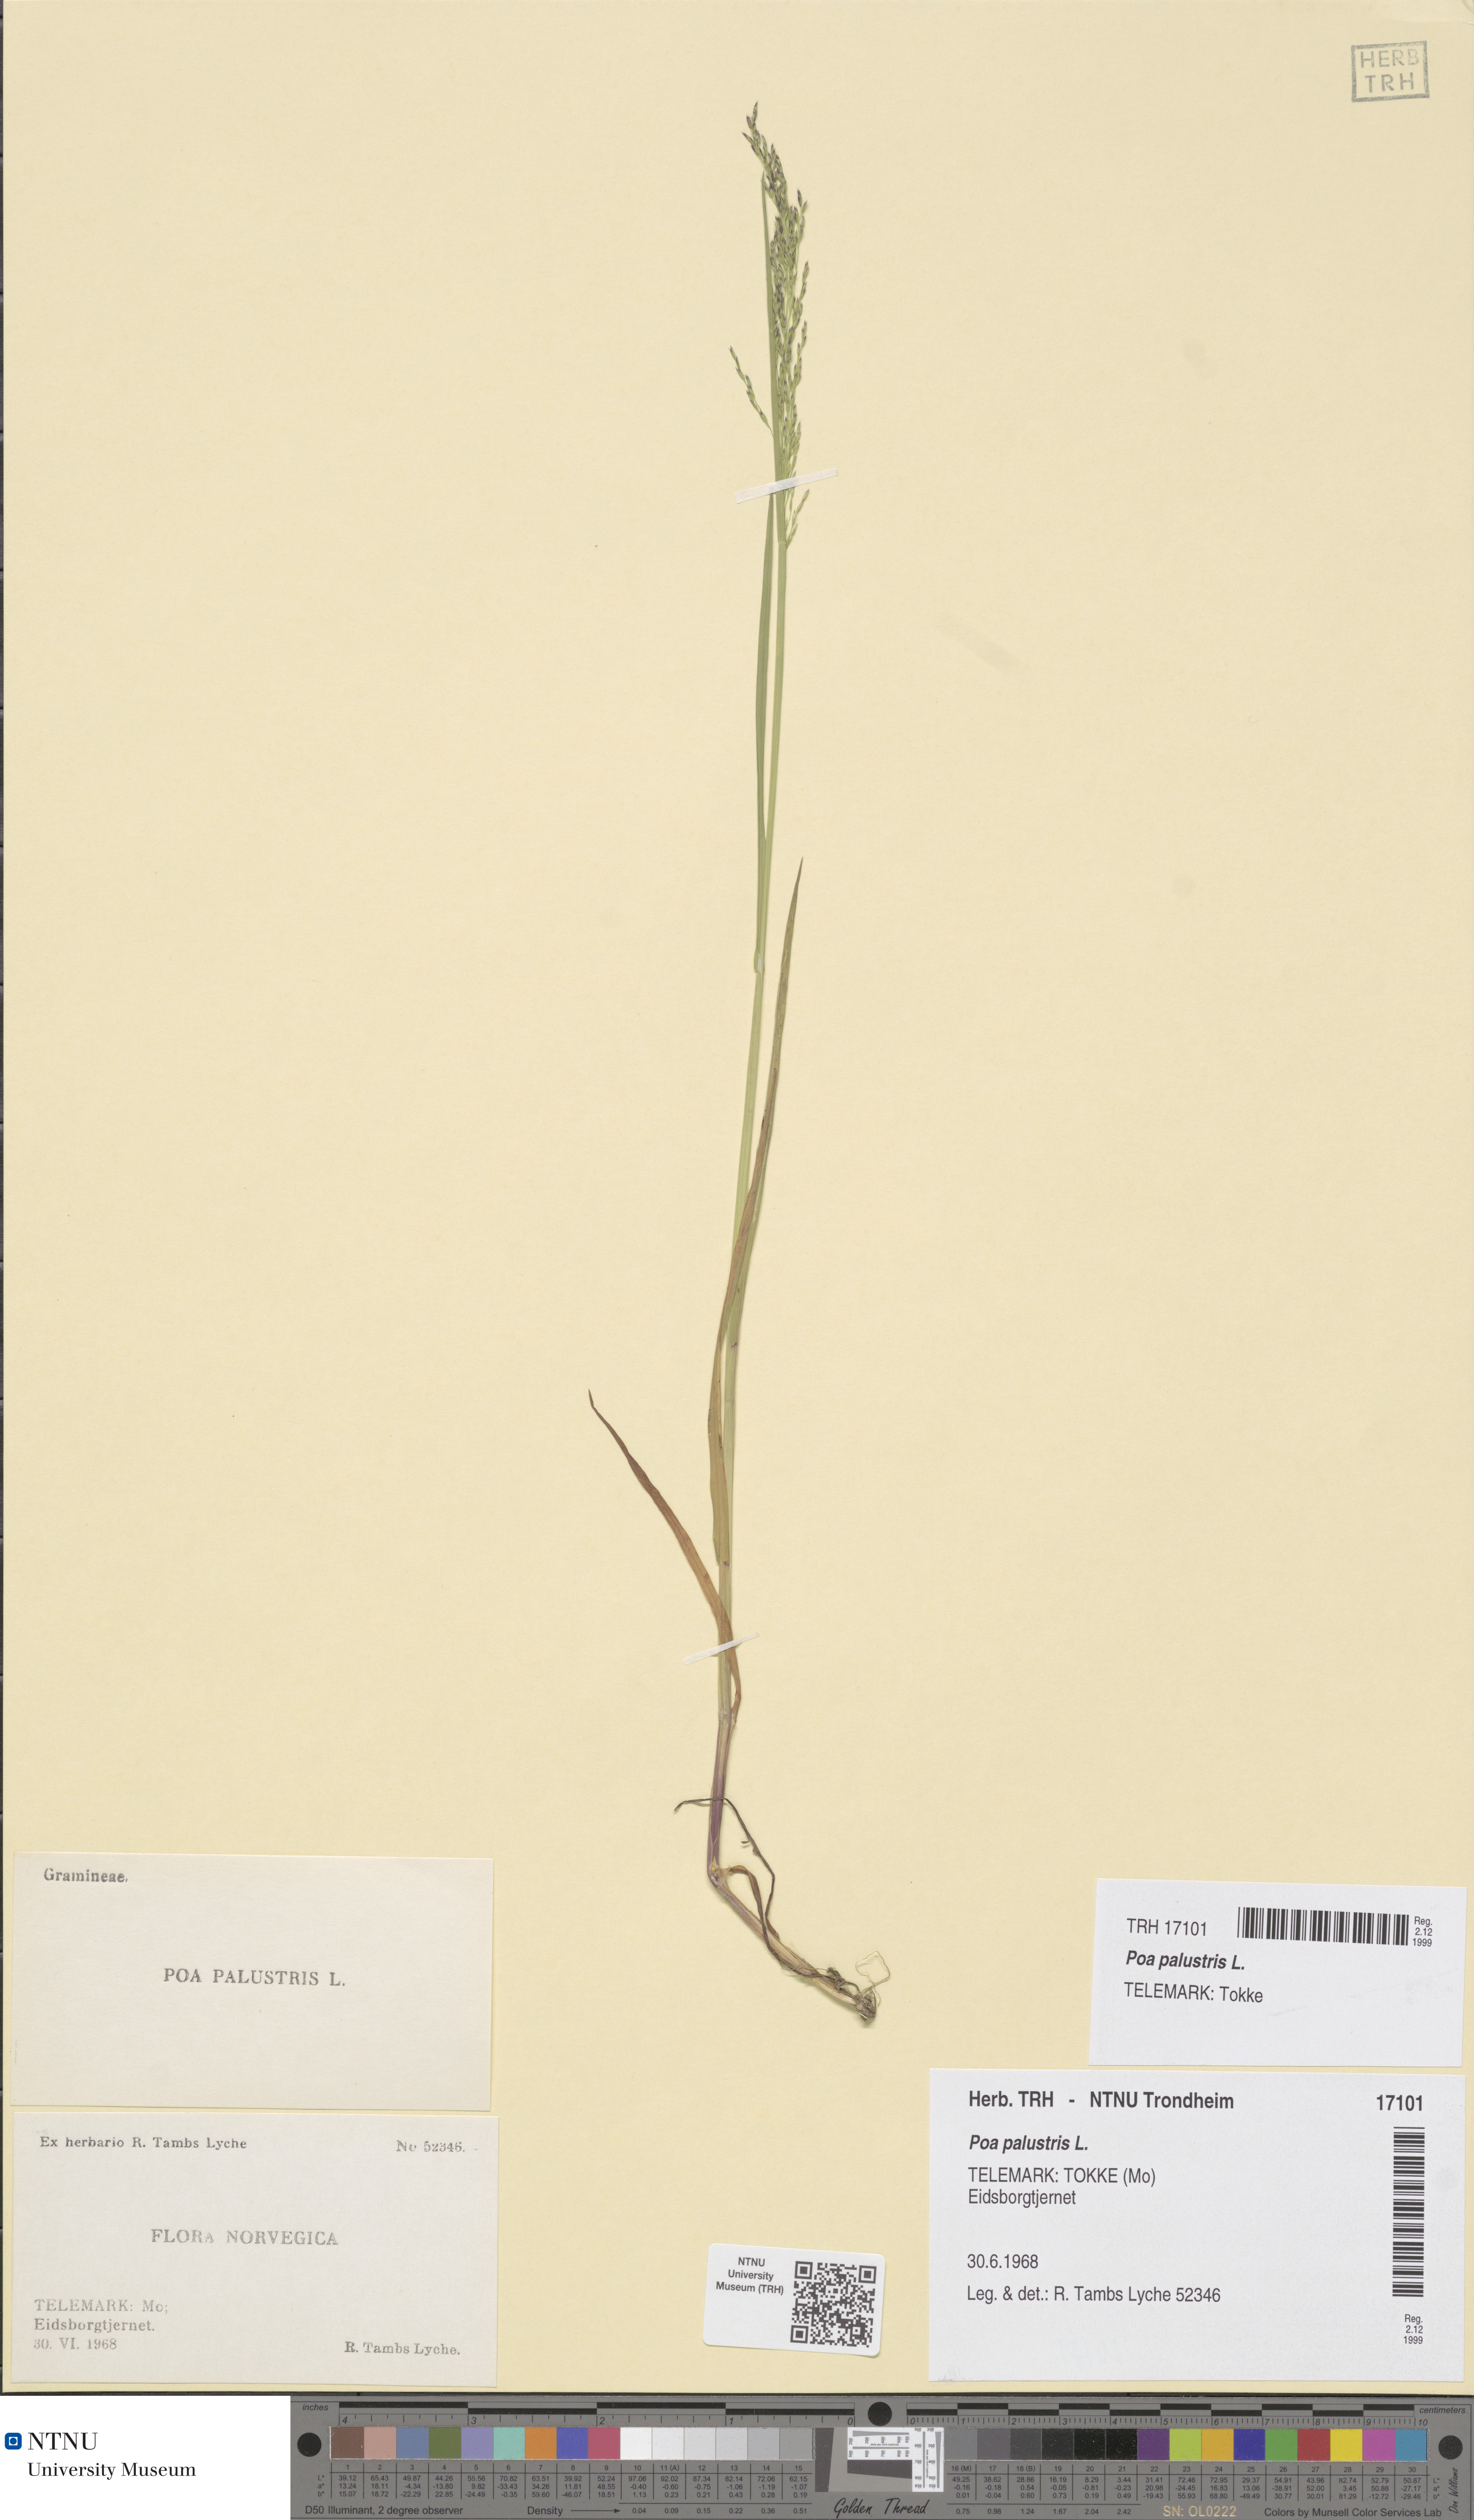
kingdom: Plantae
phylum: Tracheophyta
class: Liliopsida
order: Poales
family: Poaceae
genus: Poa
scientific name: Poa palustris
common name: Swamp meadow-grass
